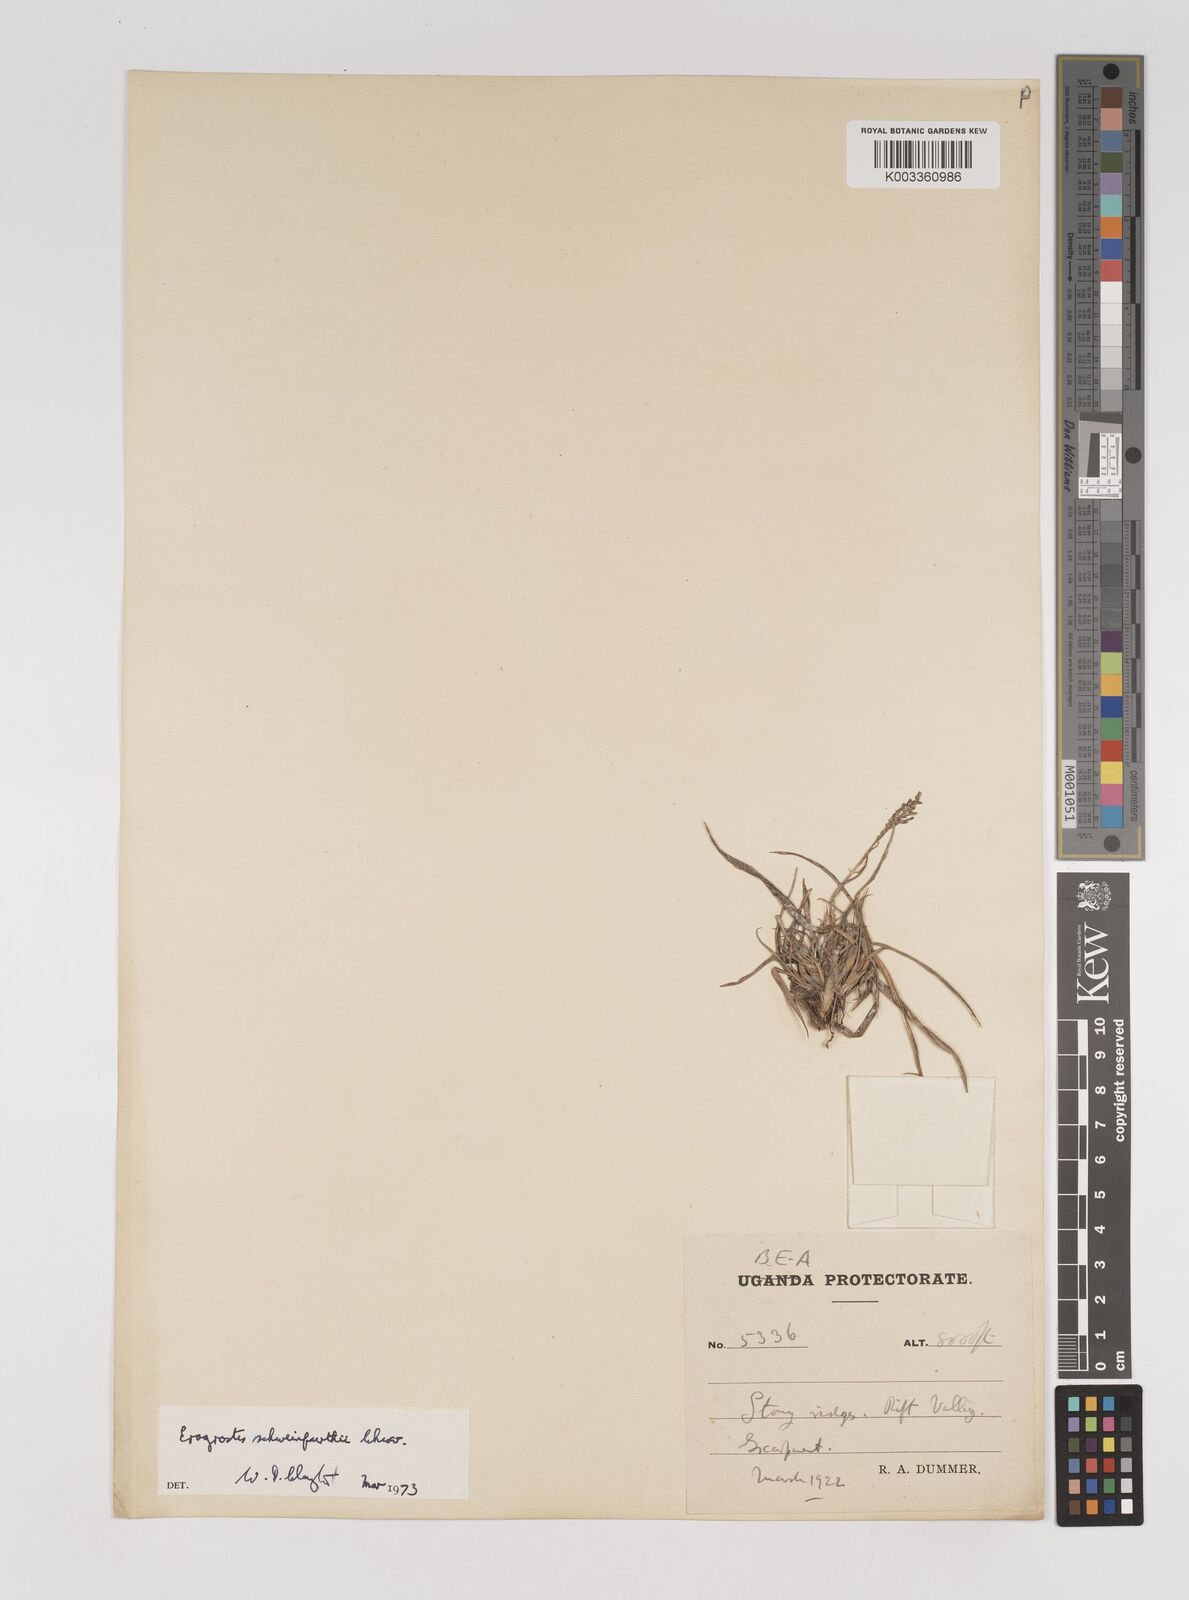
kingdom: Plantae
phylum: Tracheophyta
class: Liliopsida
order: Poales
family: Poaceae
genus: Eragrostis
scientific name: Eragrostis schweinfurthii
